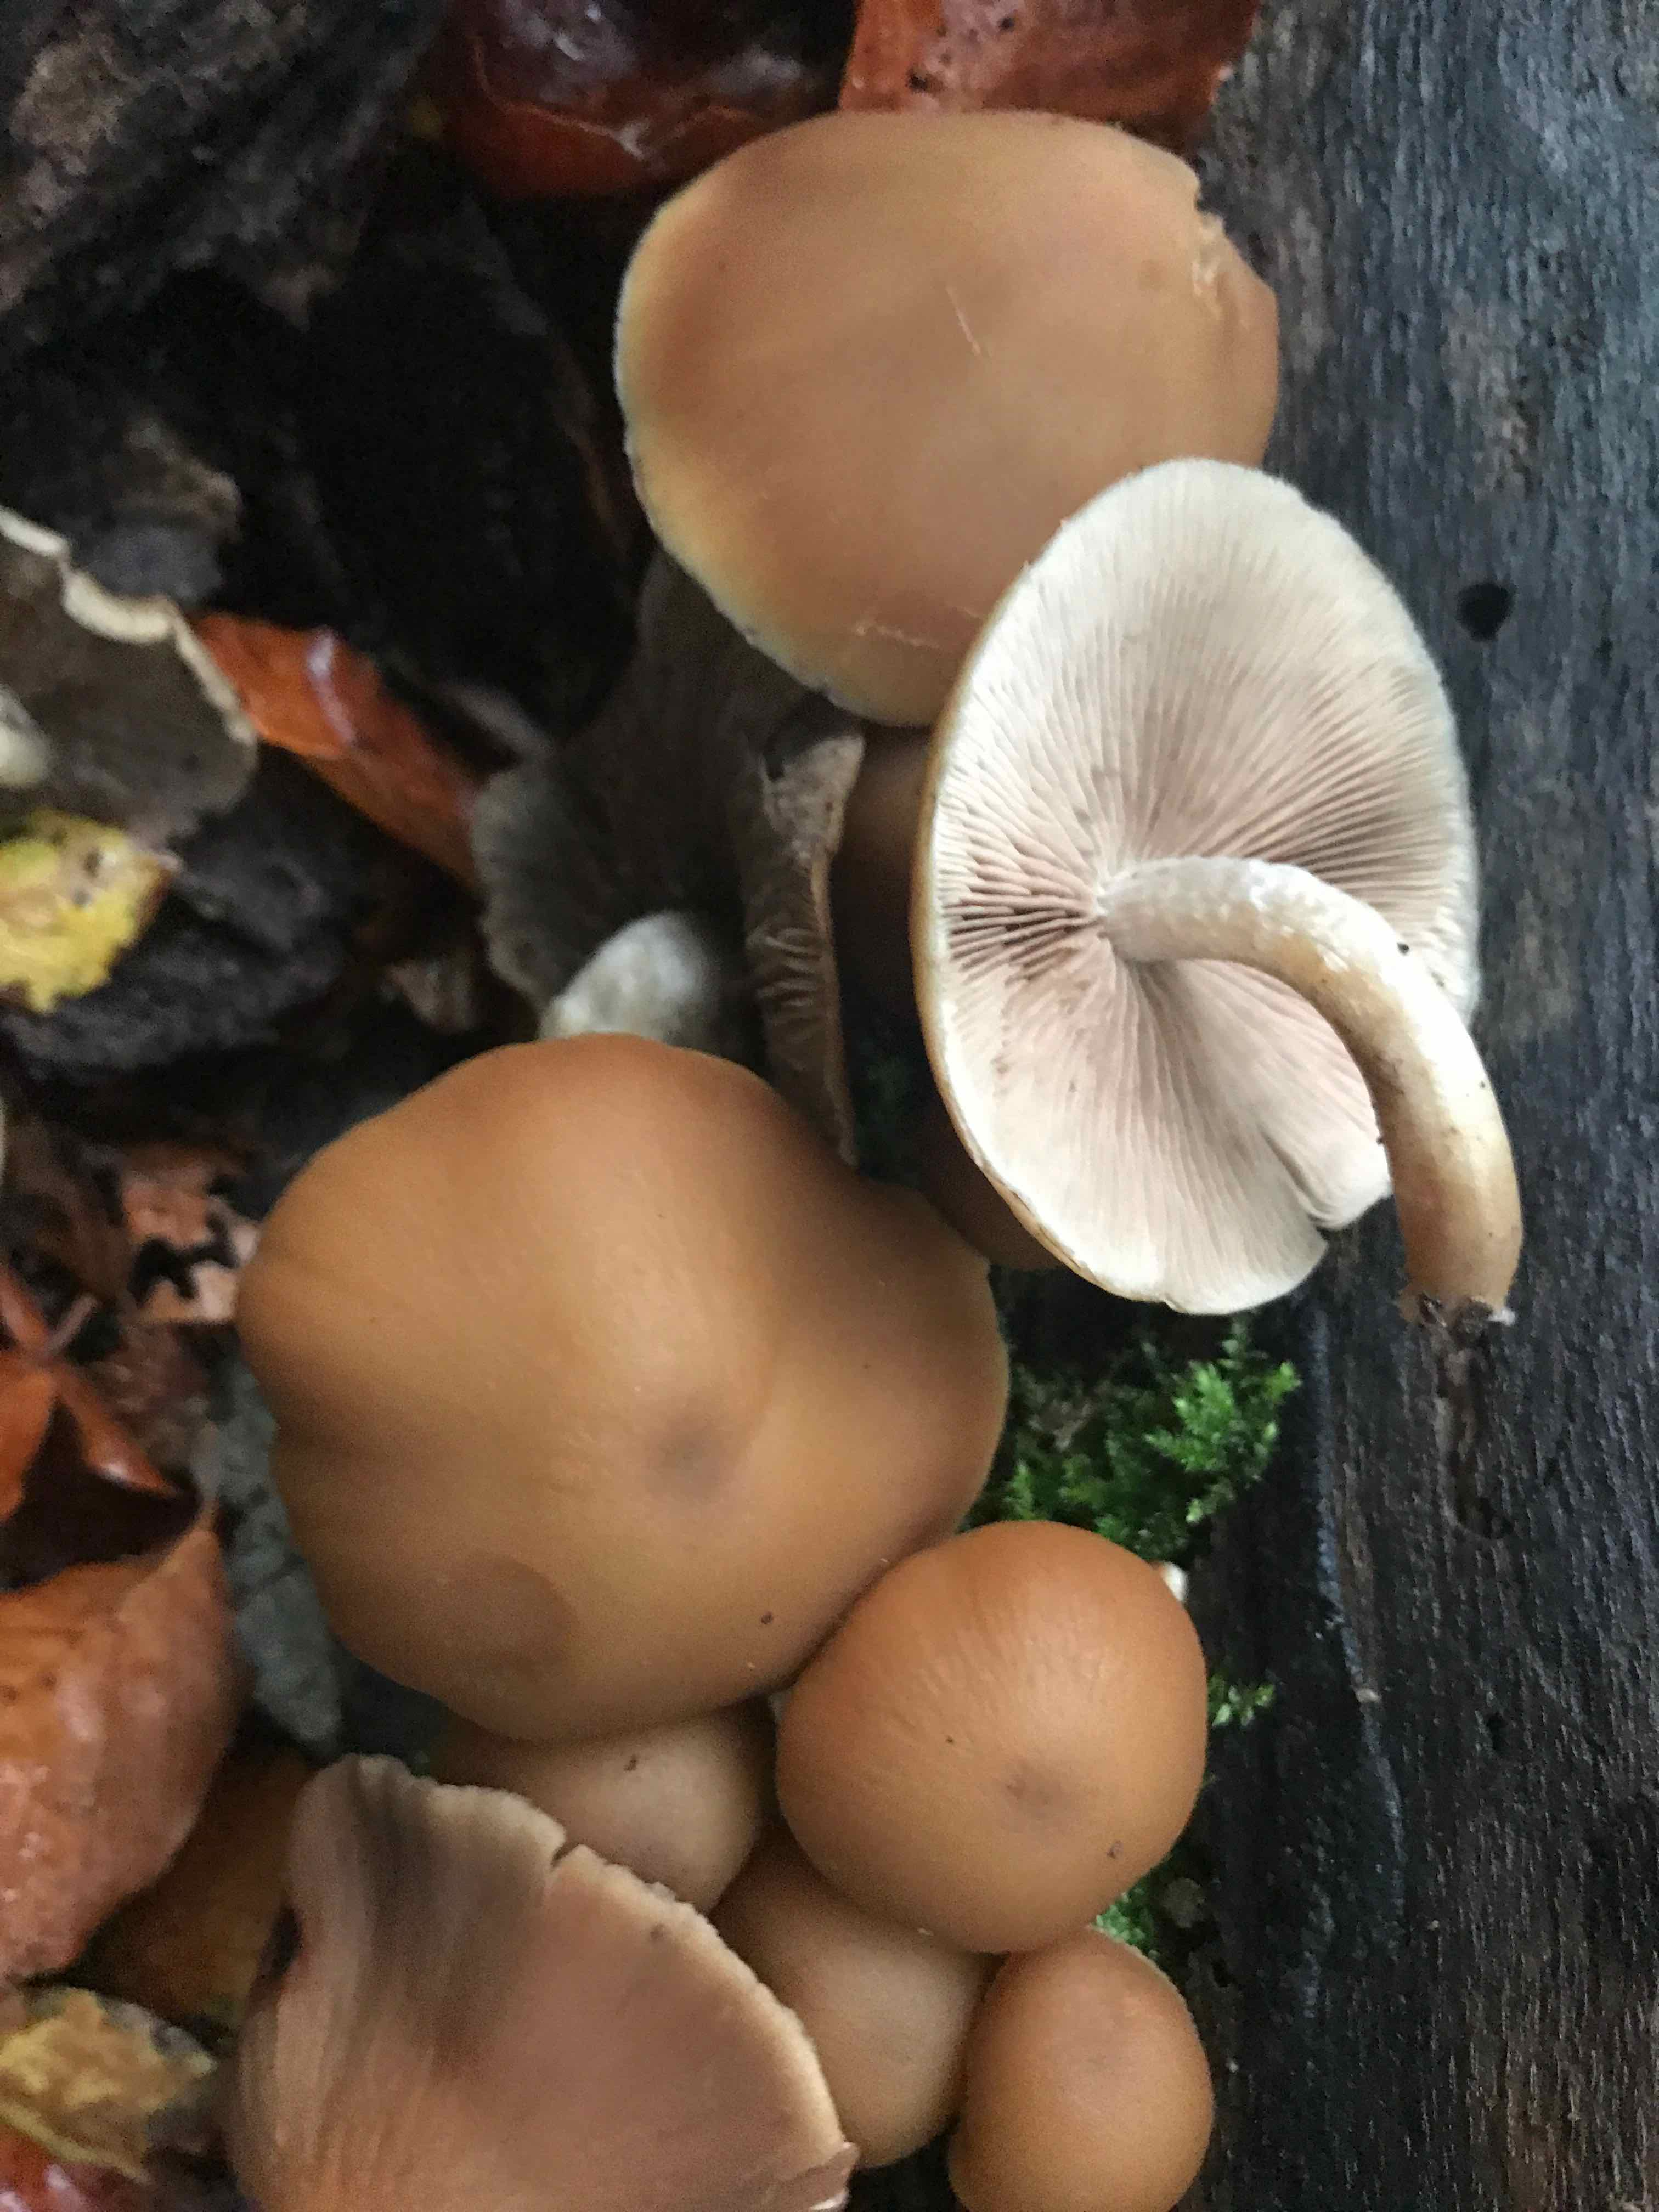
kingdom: Fungi
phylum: Basidiomycota
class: Agaricomycetes
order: Agaricales
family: Psathyrellaceae
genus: Psathyrella
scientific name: Psathyrella piluliformis
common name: lysstokket mørkhat
